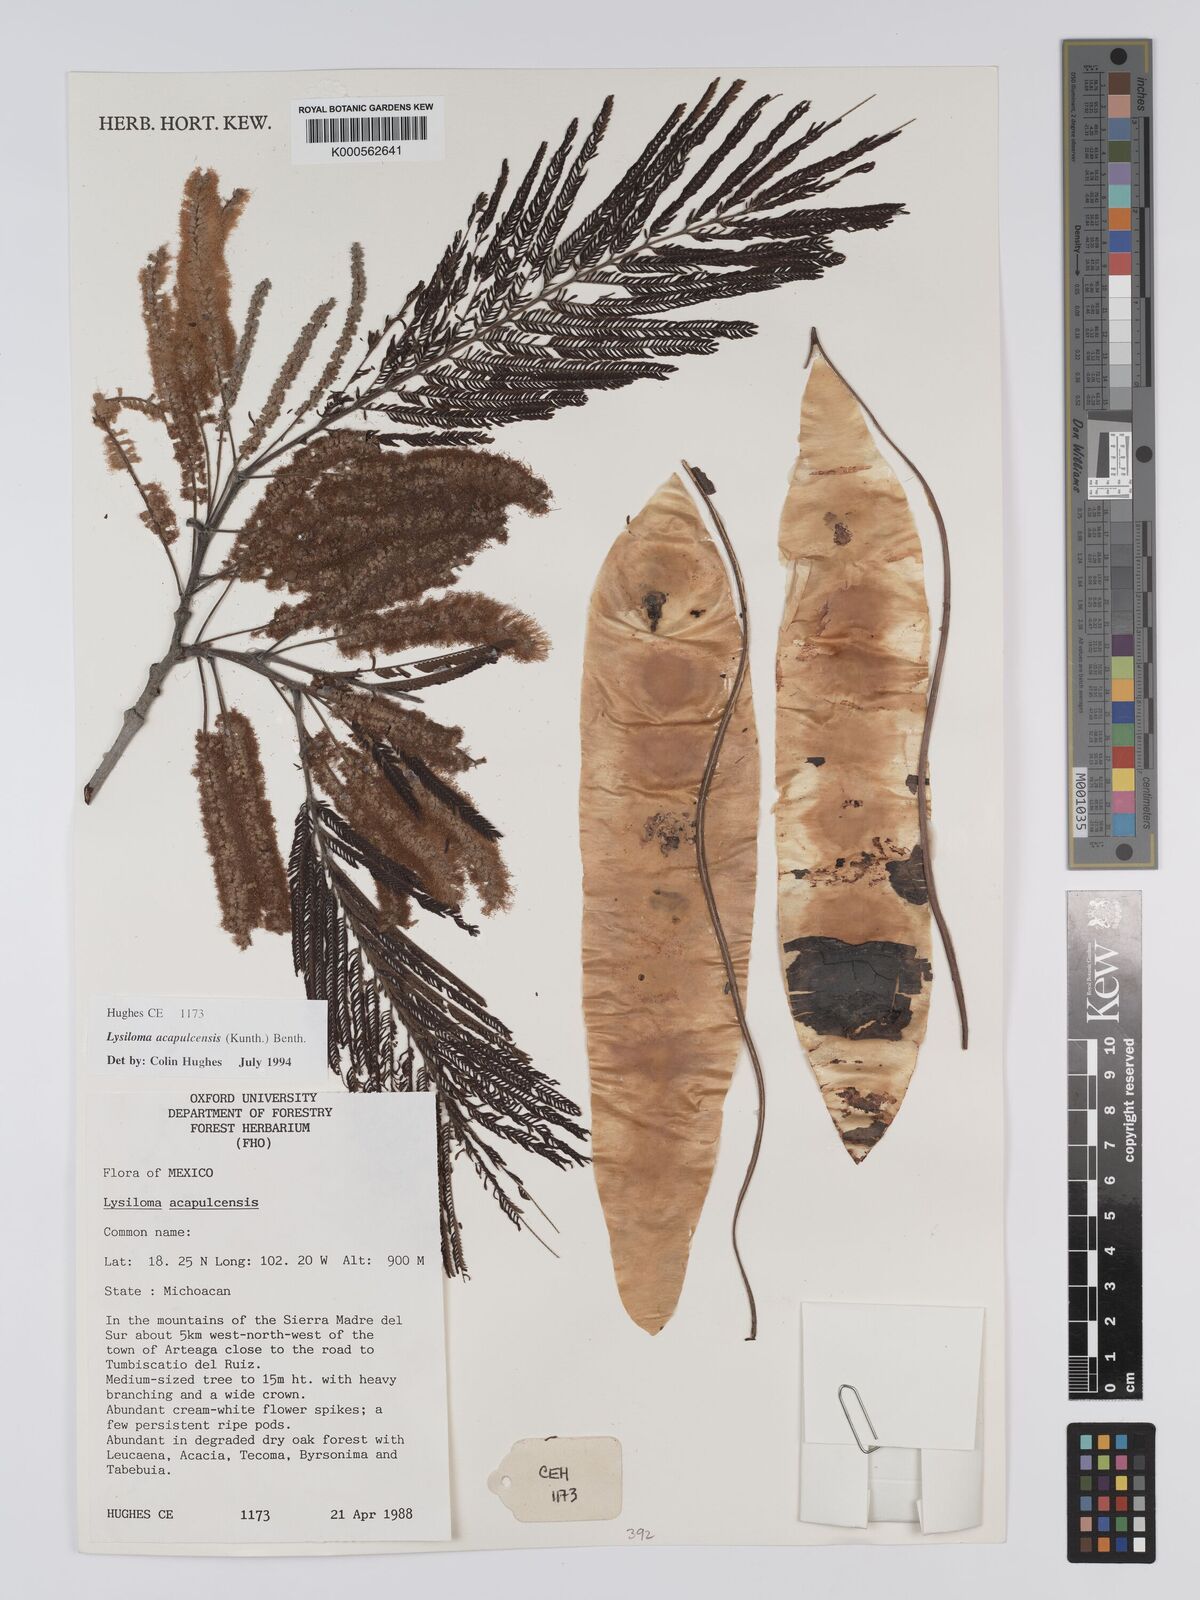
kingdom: Plantae
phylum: Tracheophyta
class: Magnoliopsida
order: Fabales
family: Fabaceae
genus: Lysiloma
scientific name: Lysiloma
